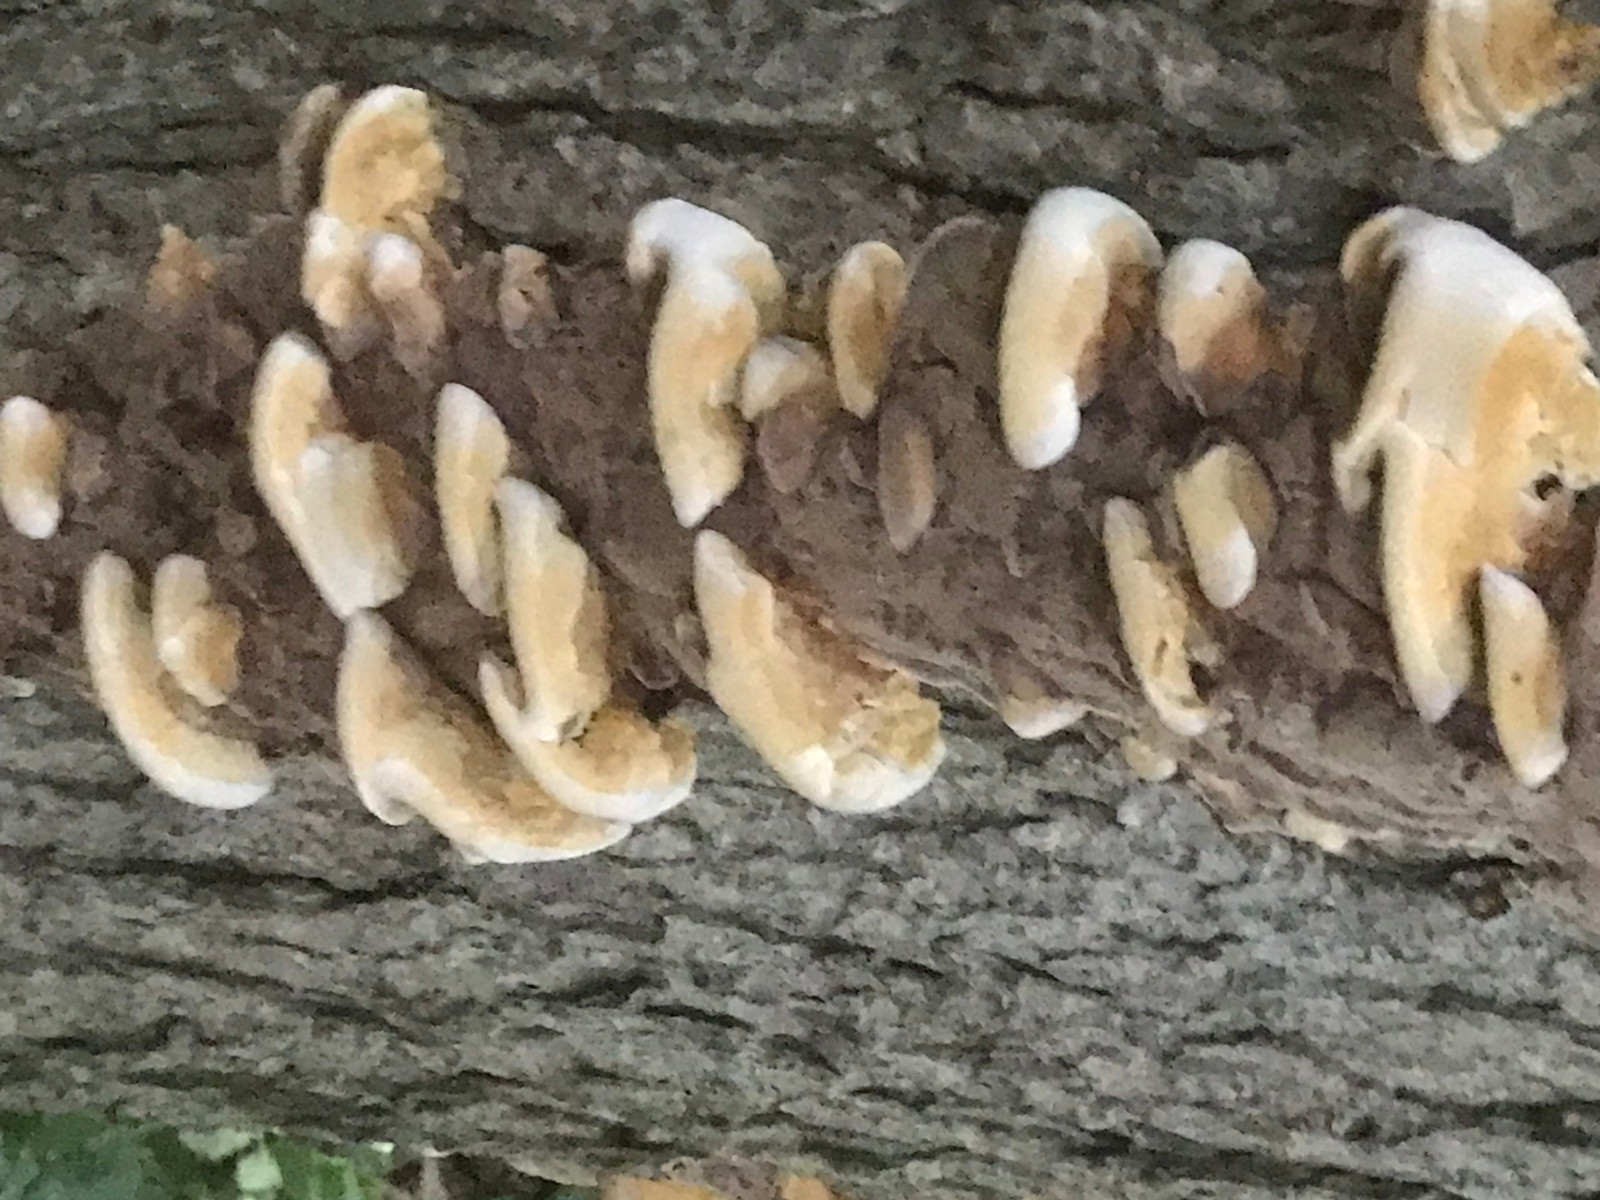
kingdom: Fungi
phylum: Basidiomycota
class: Agaricomycetes
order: Hymenochaetales
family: Hymenochaetaceae
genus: Xanthoporia
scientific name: Xanthoporia radiata
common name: elle-spejlporesvamp
